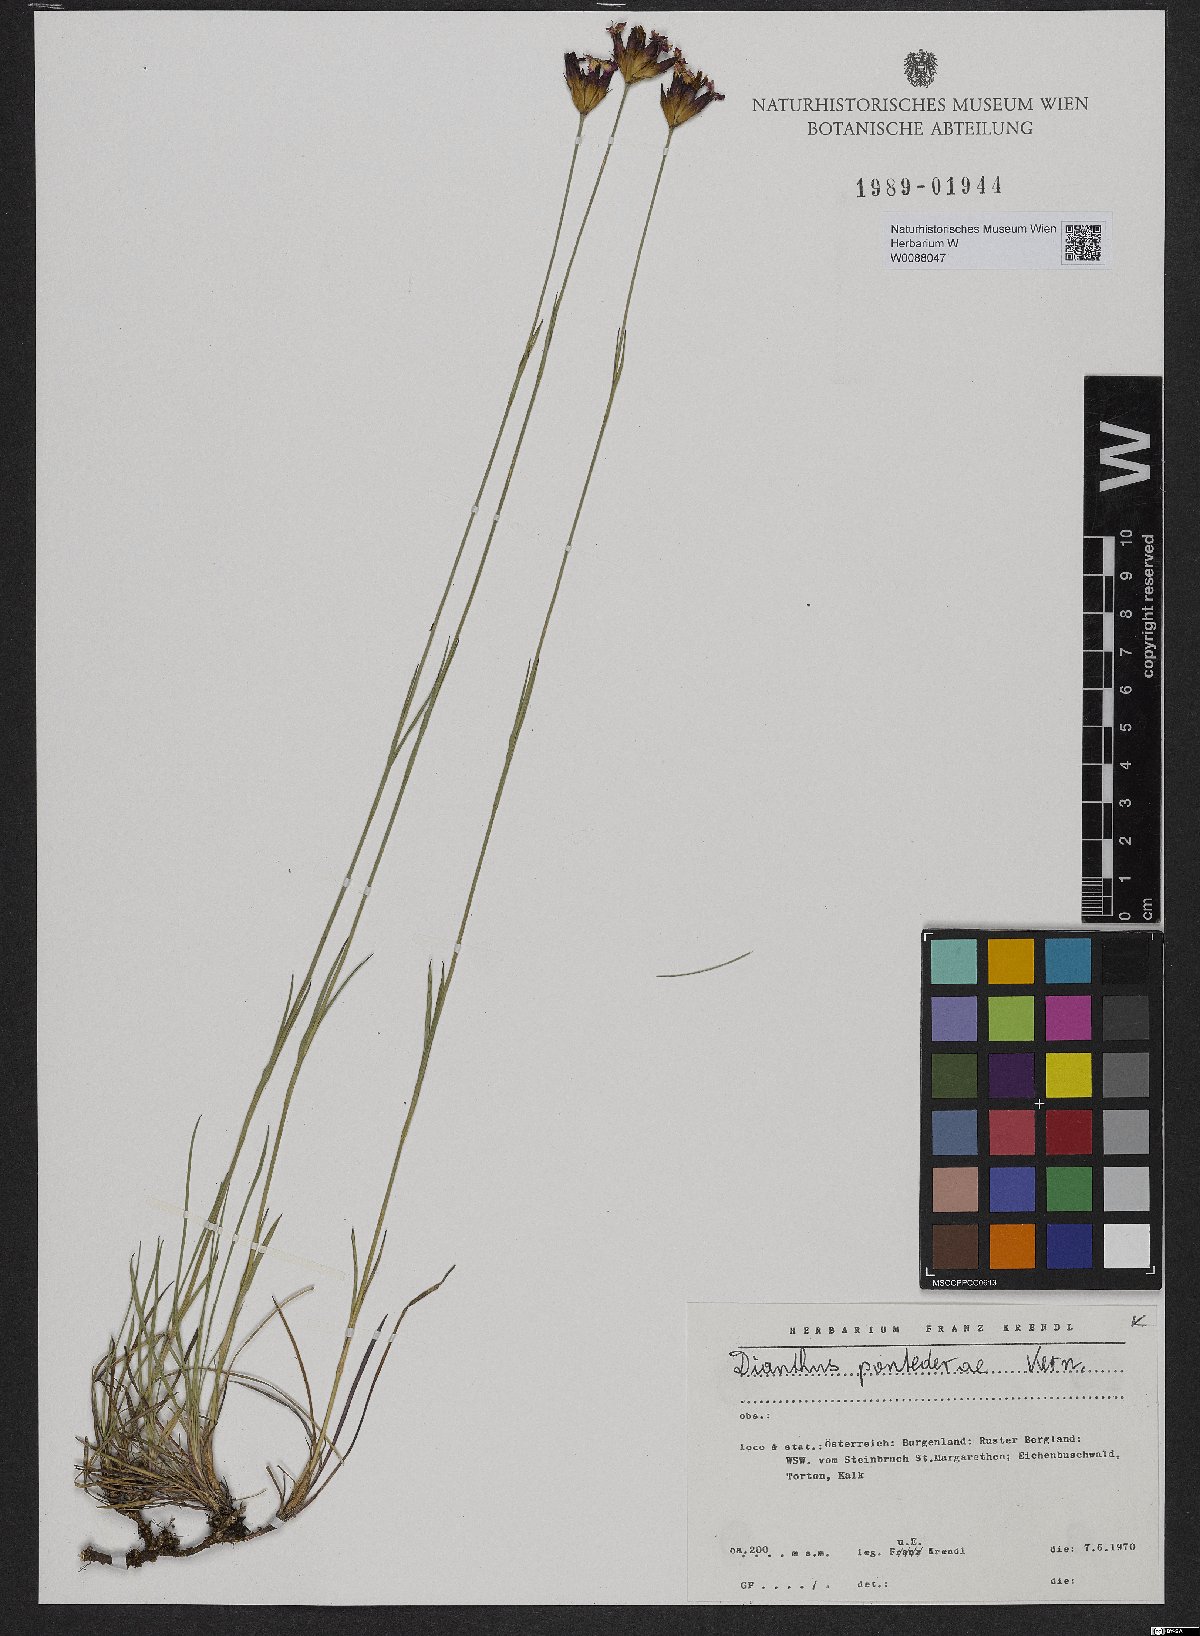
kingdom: Plantae
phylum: Tracheophyta
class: Magnoliopsida
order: Caryophyllales
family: Caryophyllaceae
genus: Dianthus
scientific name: Dianthus pontederae
